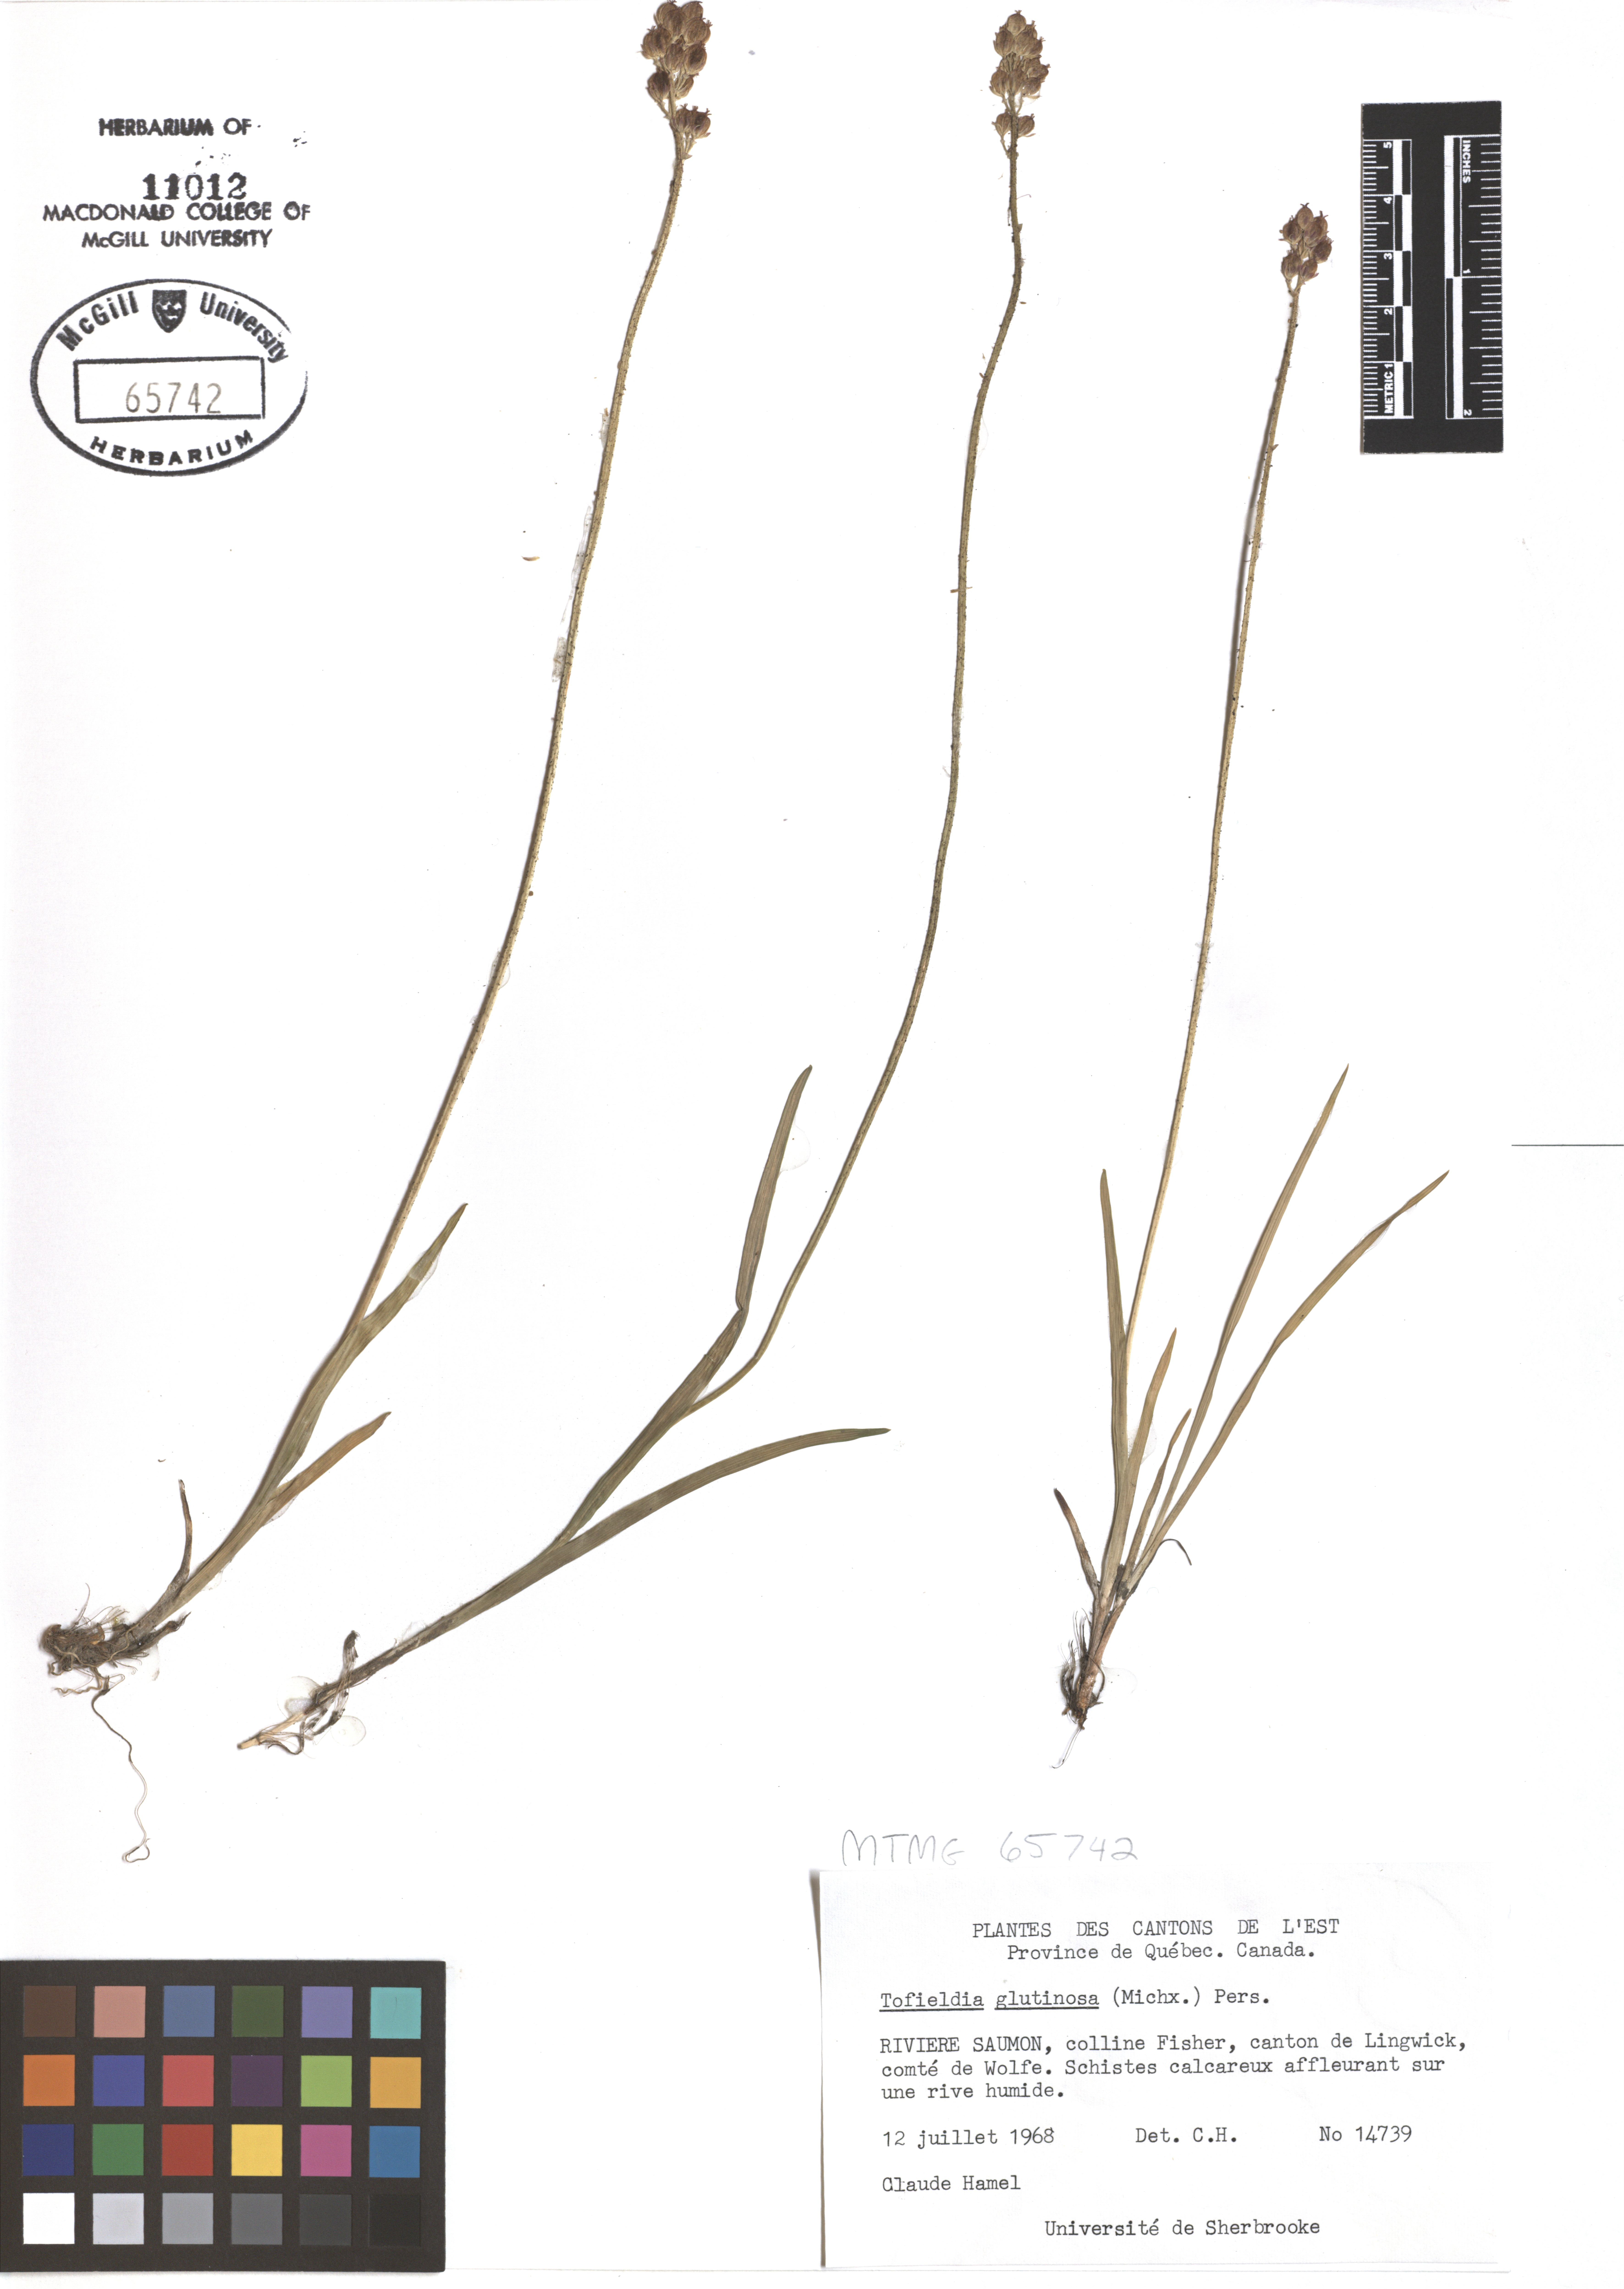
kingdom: Plantae
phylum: Tracheophyta
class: Liliopsida
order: Alismatales
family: Tofieldiaceae
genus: Triantha
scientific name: Triantha glutinosa
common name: Glutinous tofieldia
